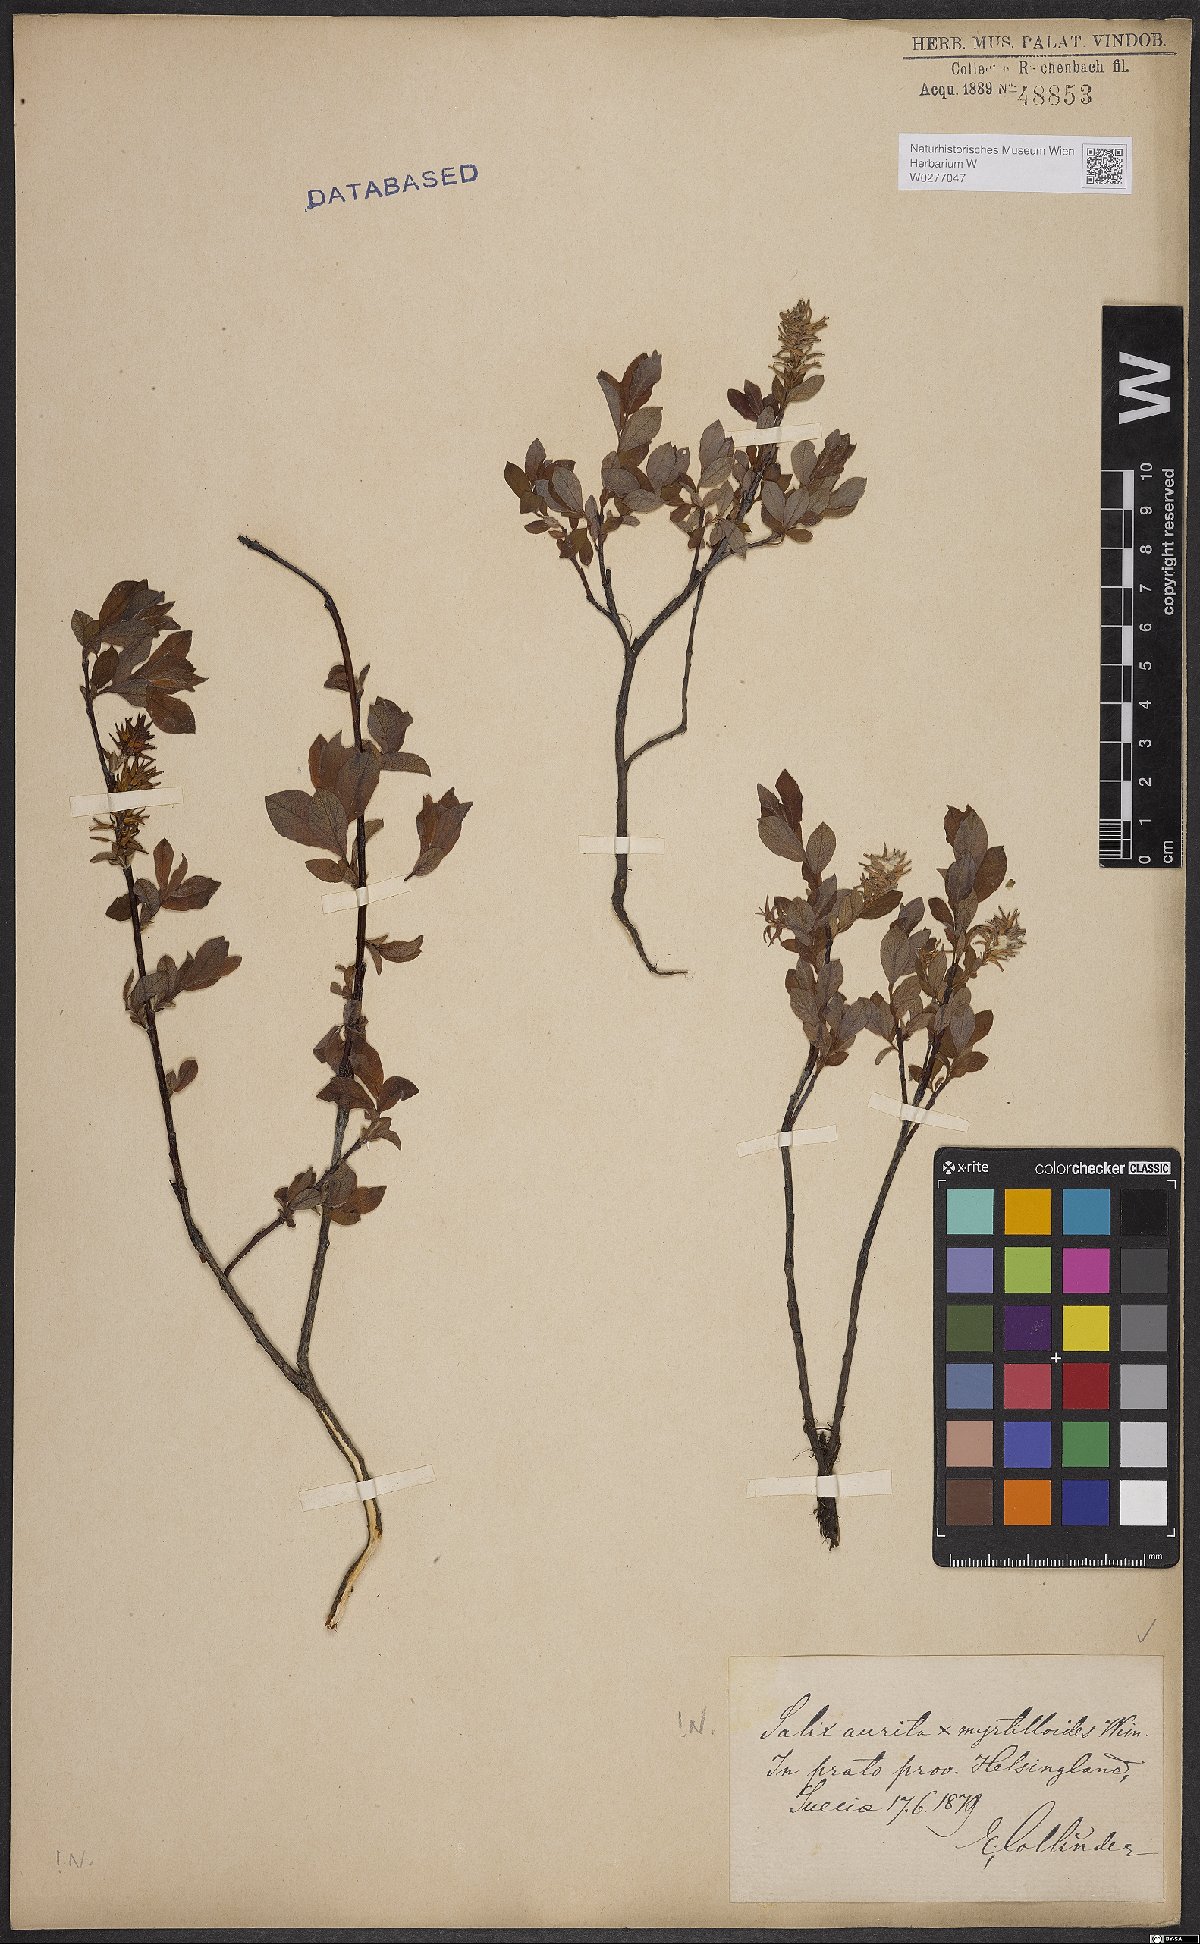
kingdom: Plantae
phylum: Tracheophyta
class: Magnoliopsida
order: Malpighiales
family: Salicaceae
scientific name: Salicaceae
